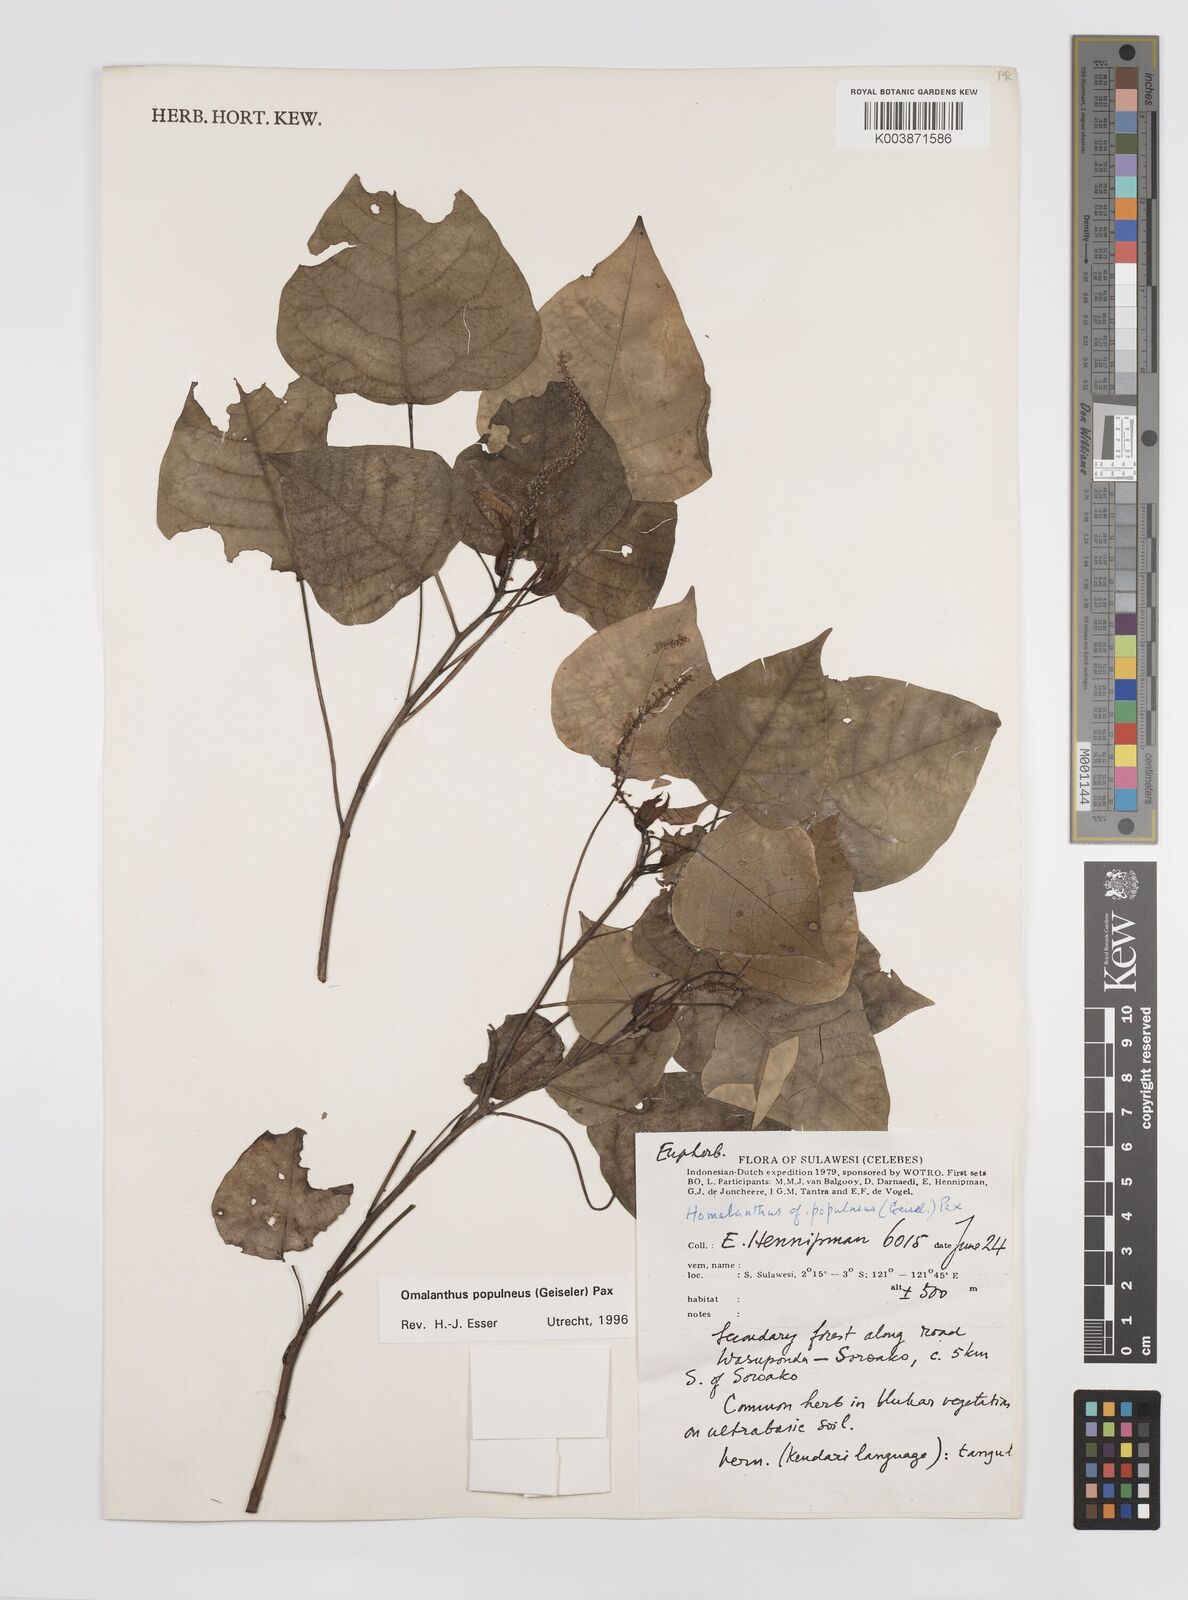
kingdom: Plantae
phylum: Tracheophyta
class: Magnoliopsida
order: Malpighiales
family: Euphorbiaceae
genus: Homalanthus
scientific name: Homalanthus populneus
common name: Spurge
